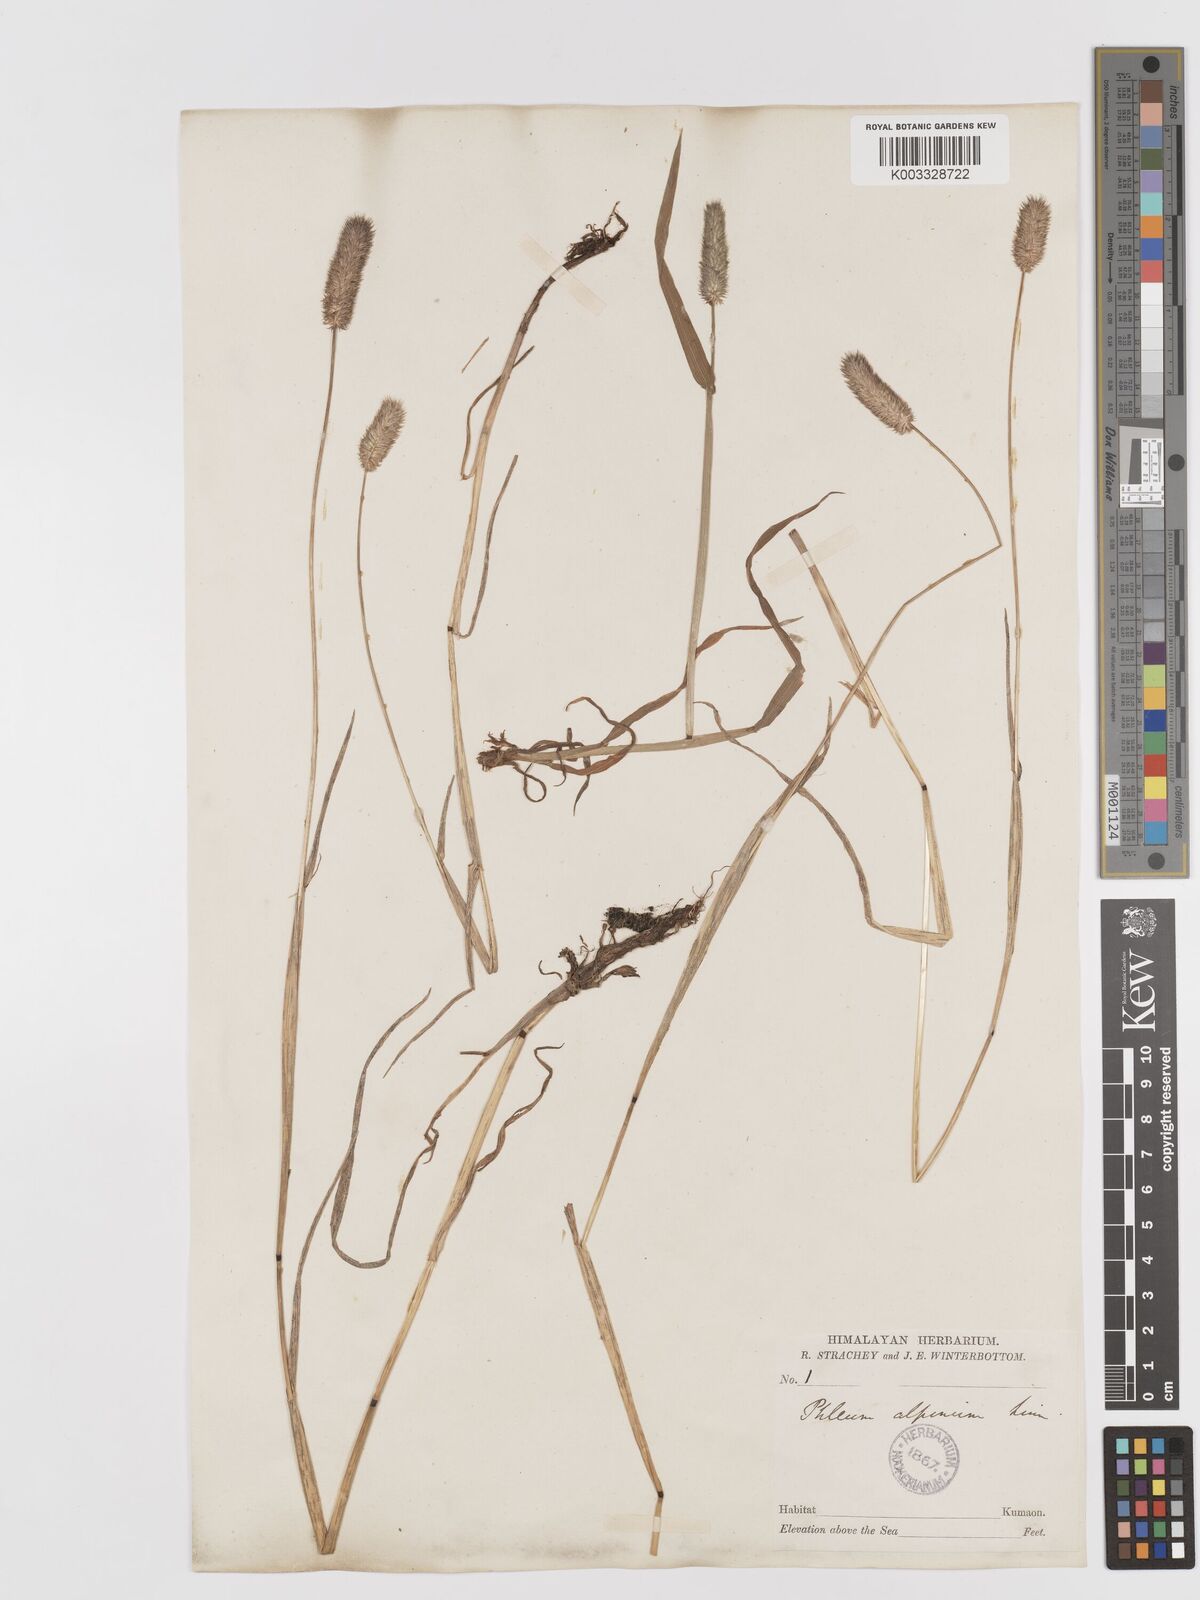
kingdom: Plantae
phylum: Tracheophyta
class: Liliopsida
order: Poales
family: Poaceae
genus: Phleum
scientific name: Phleum alpinum
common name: Alpine cat's-tail
